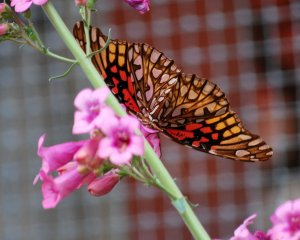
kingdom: Animalia
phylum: Arthropoda
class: Insecta
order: Lepidoptera
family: Nymphalidae
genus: Dione
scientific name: Dione moneta
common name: Mexican Silverspot
